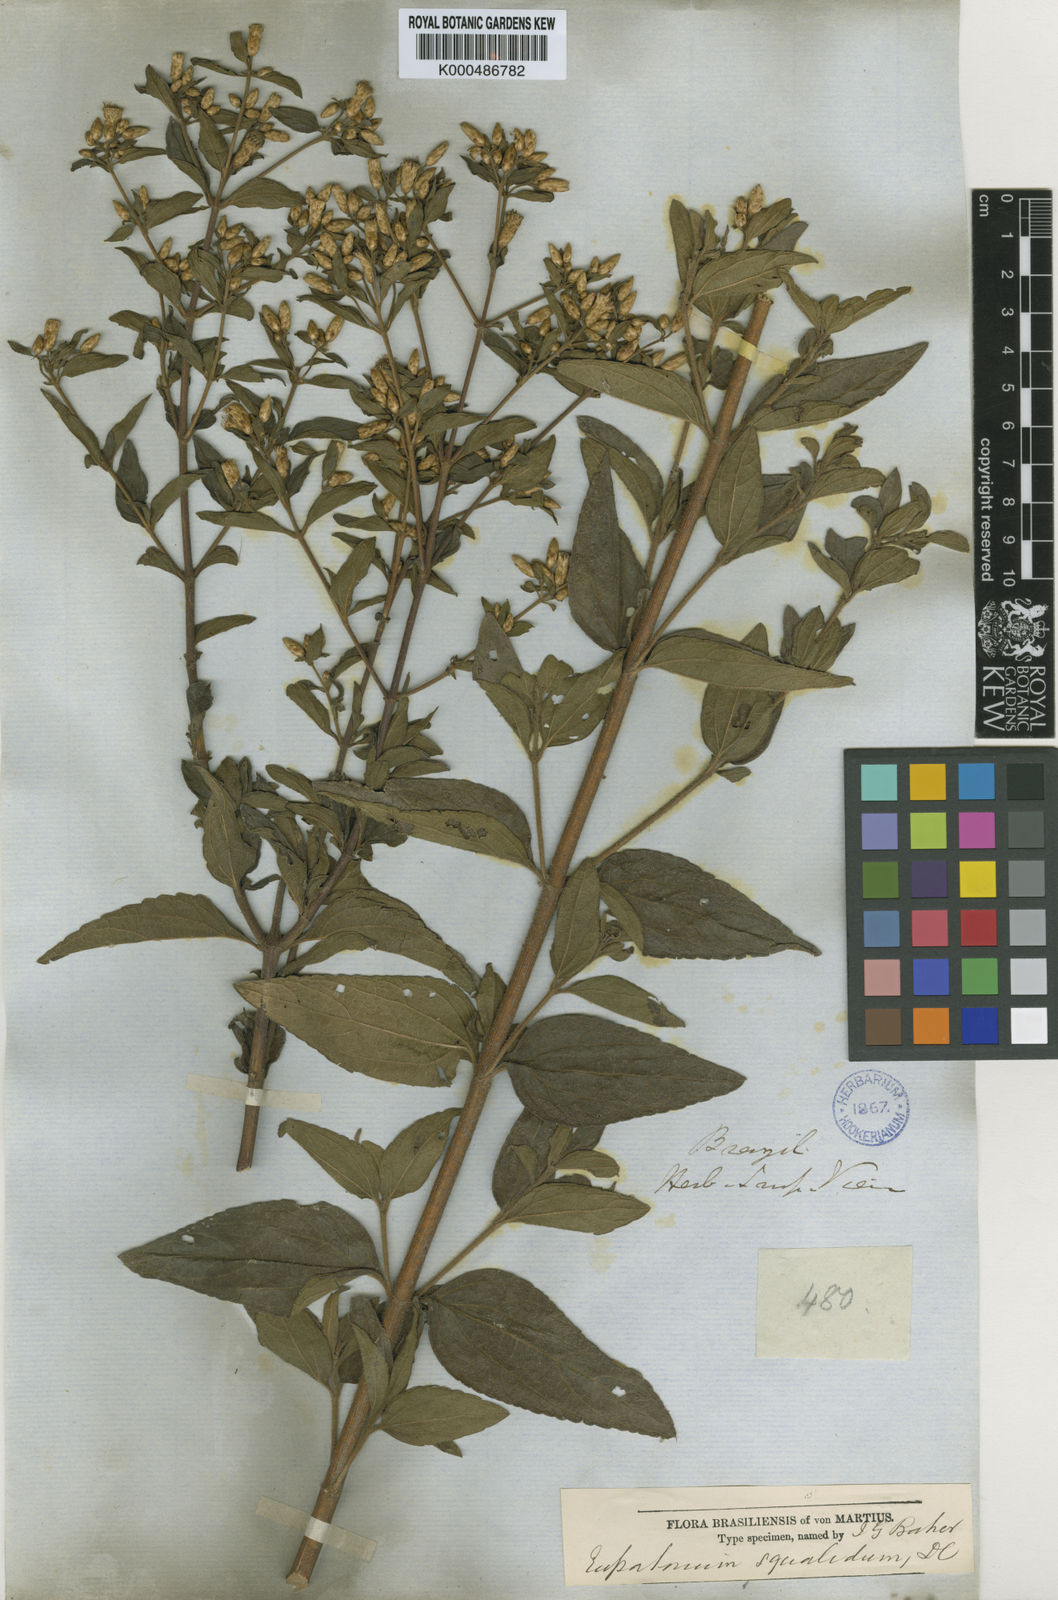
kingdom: Plantae
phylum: Tracheophyta
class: Magnoliopsida
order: Asterales
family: Asteraceae
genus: Chromolaena
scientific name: Chromolaena squalida
